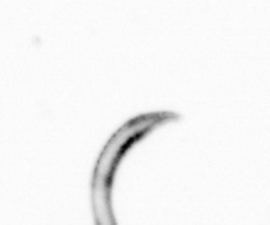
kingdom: Chromista
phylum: Ochrophyta
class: Bacillariophyceae
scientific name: Bacillariophyceae
